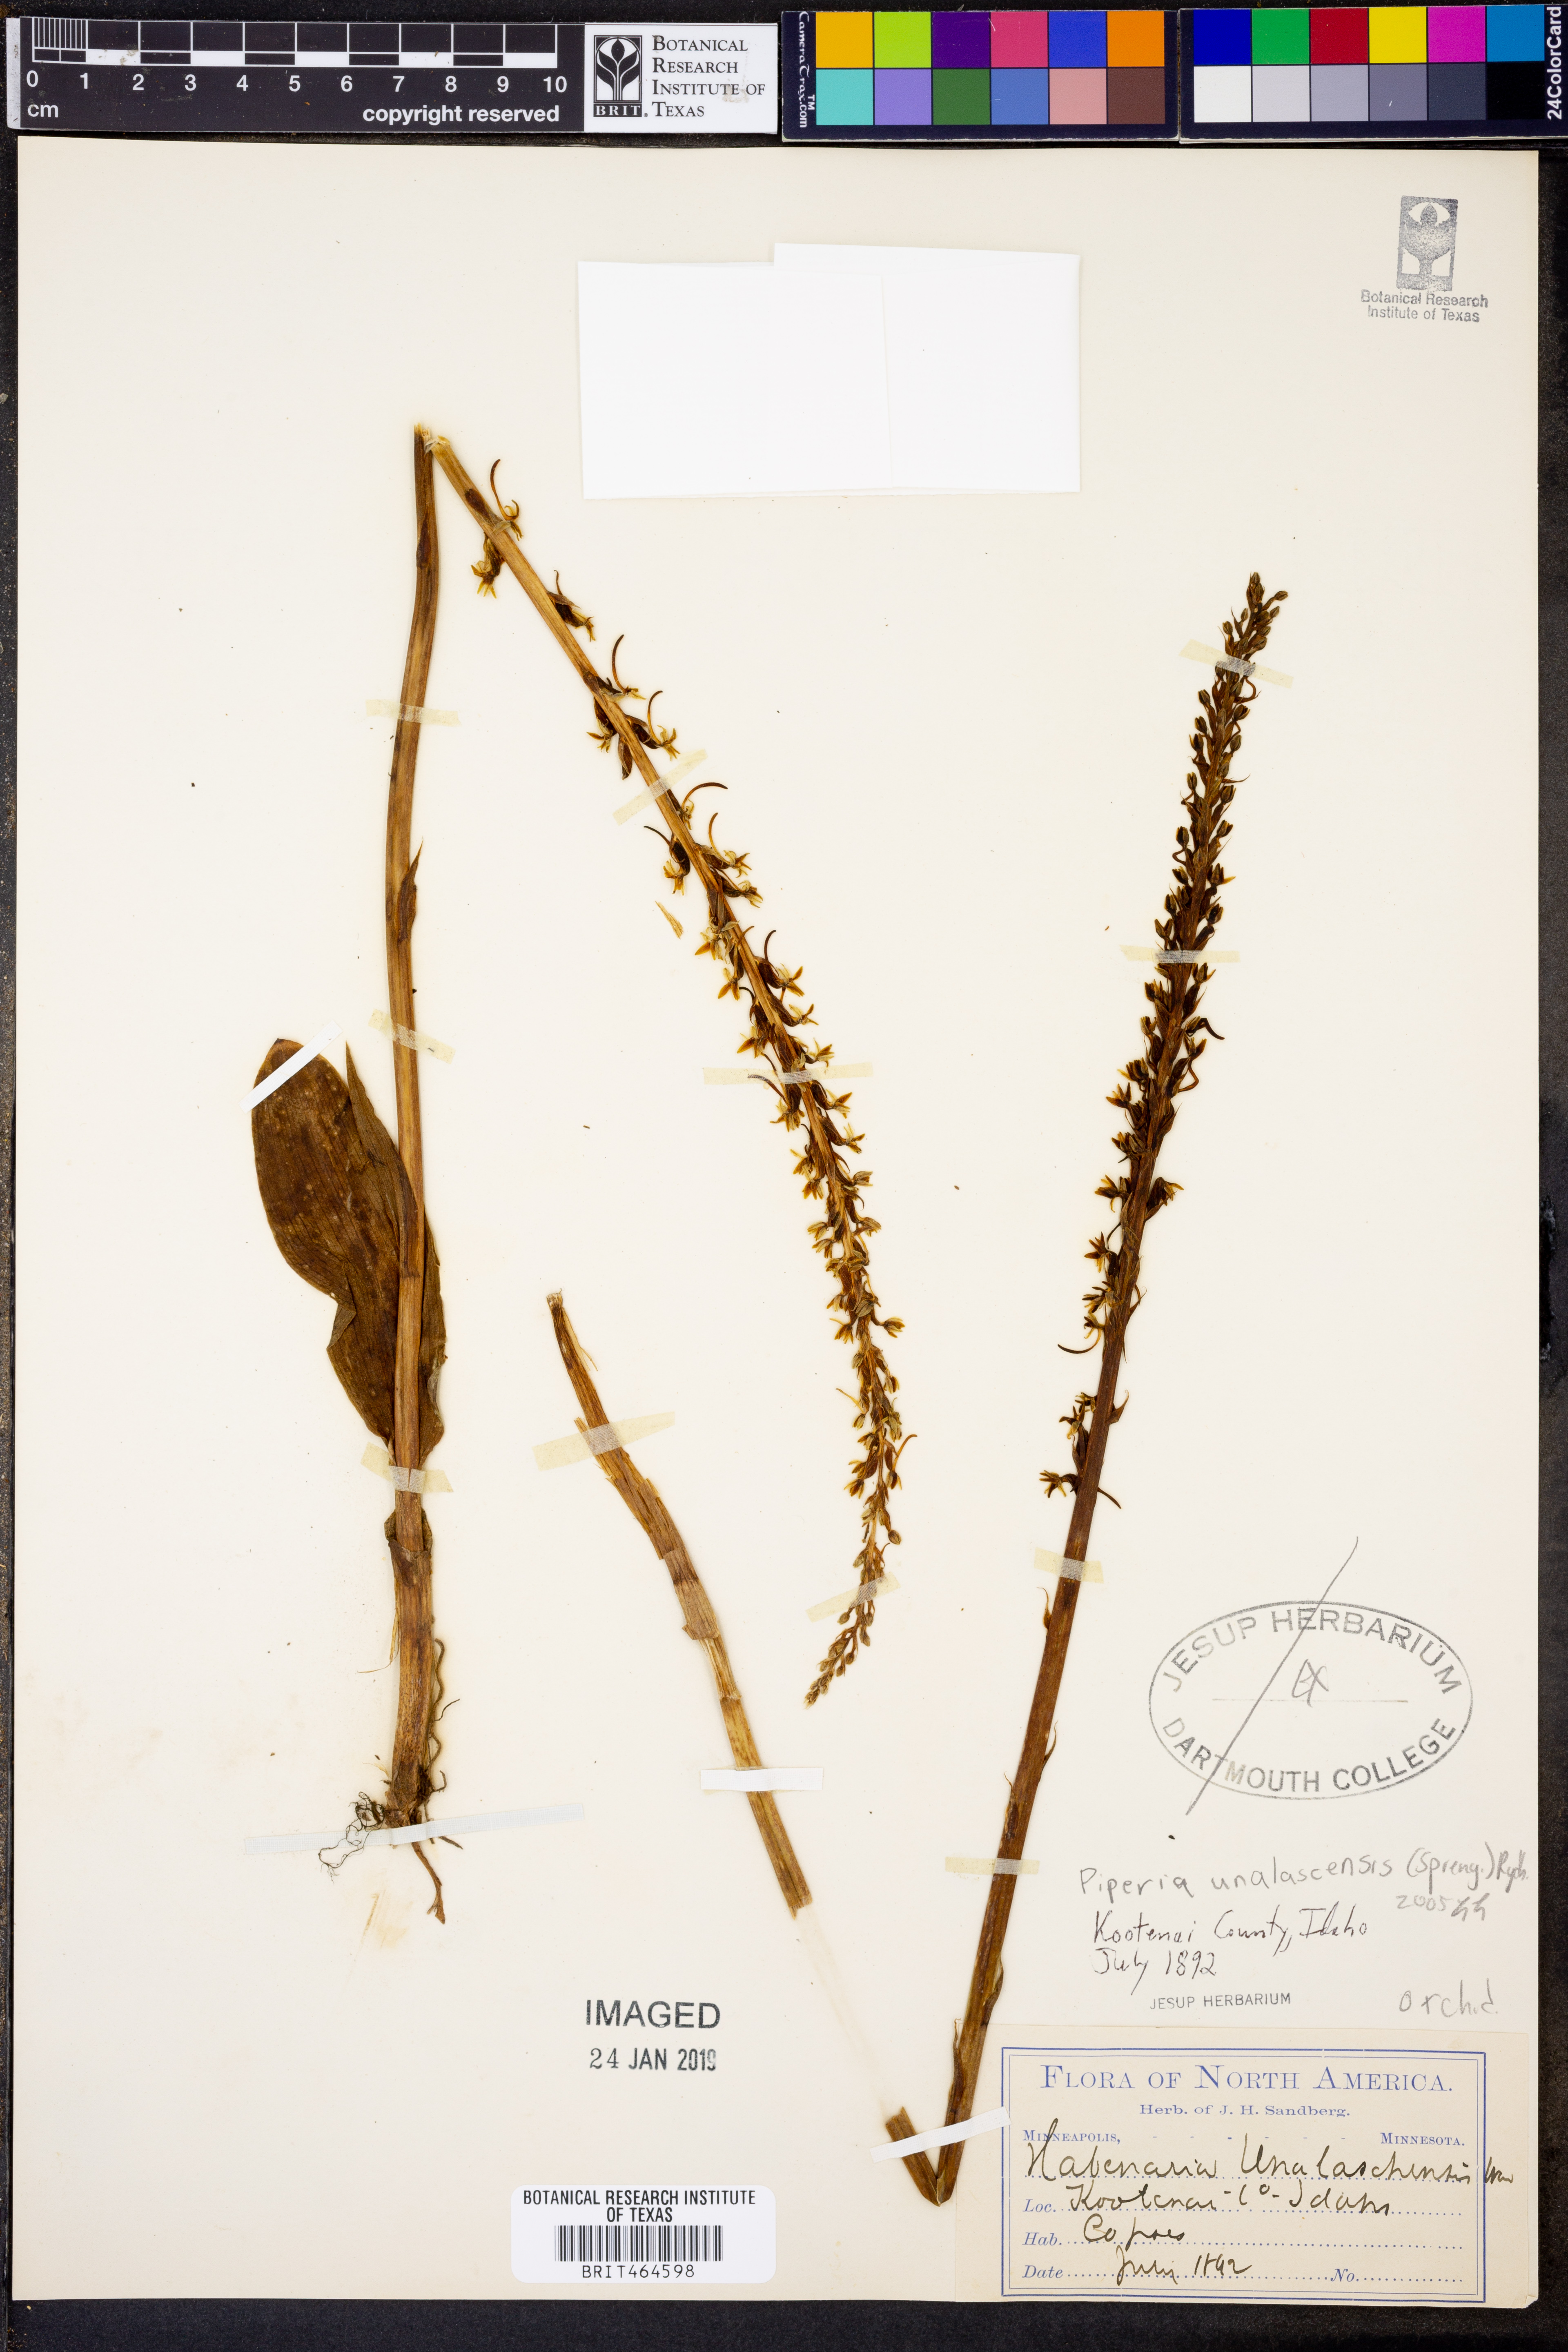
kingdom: Plantae
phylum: Tracheophyta
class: Liliopsida
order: Asparagales
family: Orchidaceae
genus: Platanthera
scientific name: Platanthera unalascensis
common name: Alaska bog orchid
